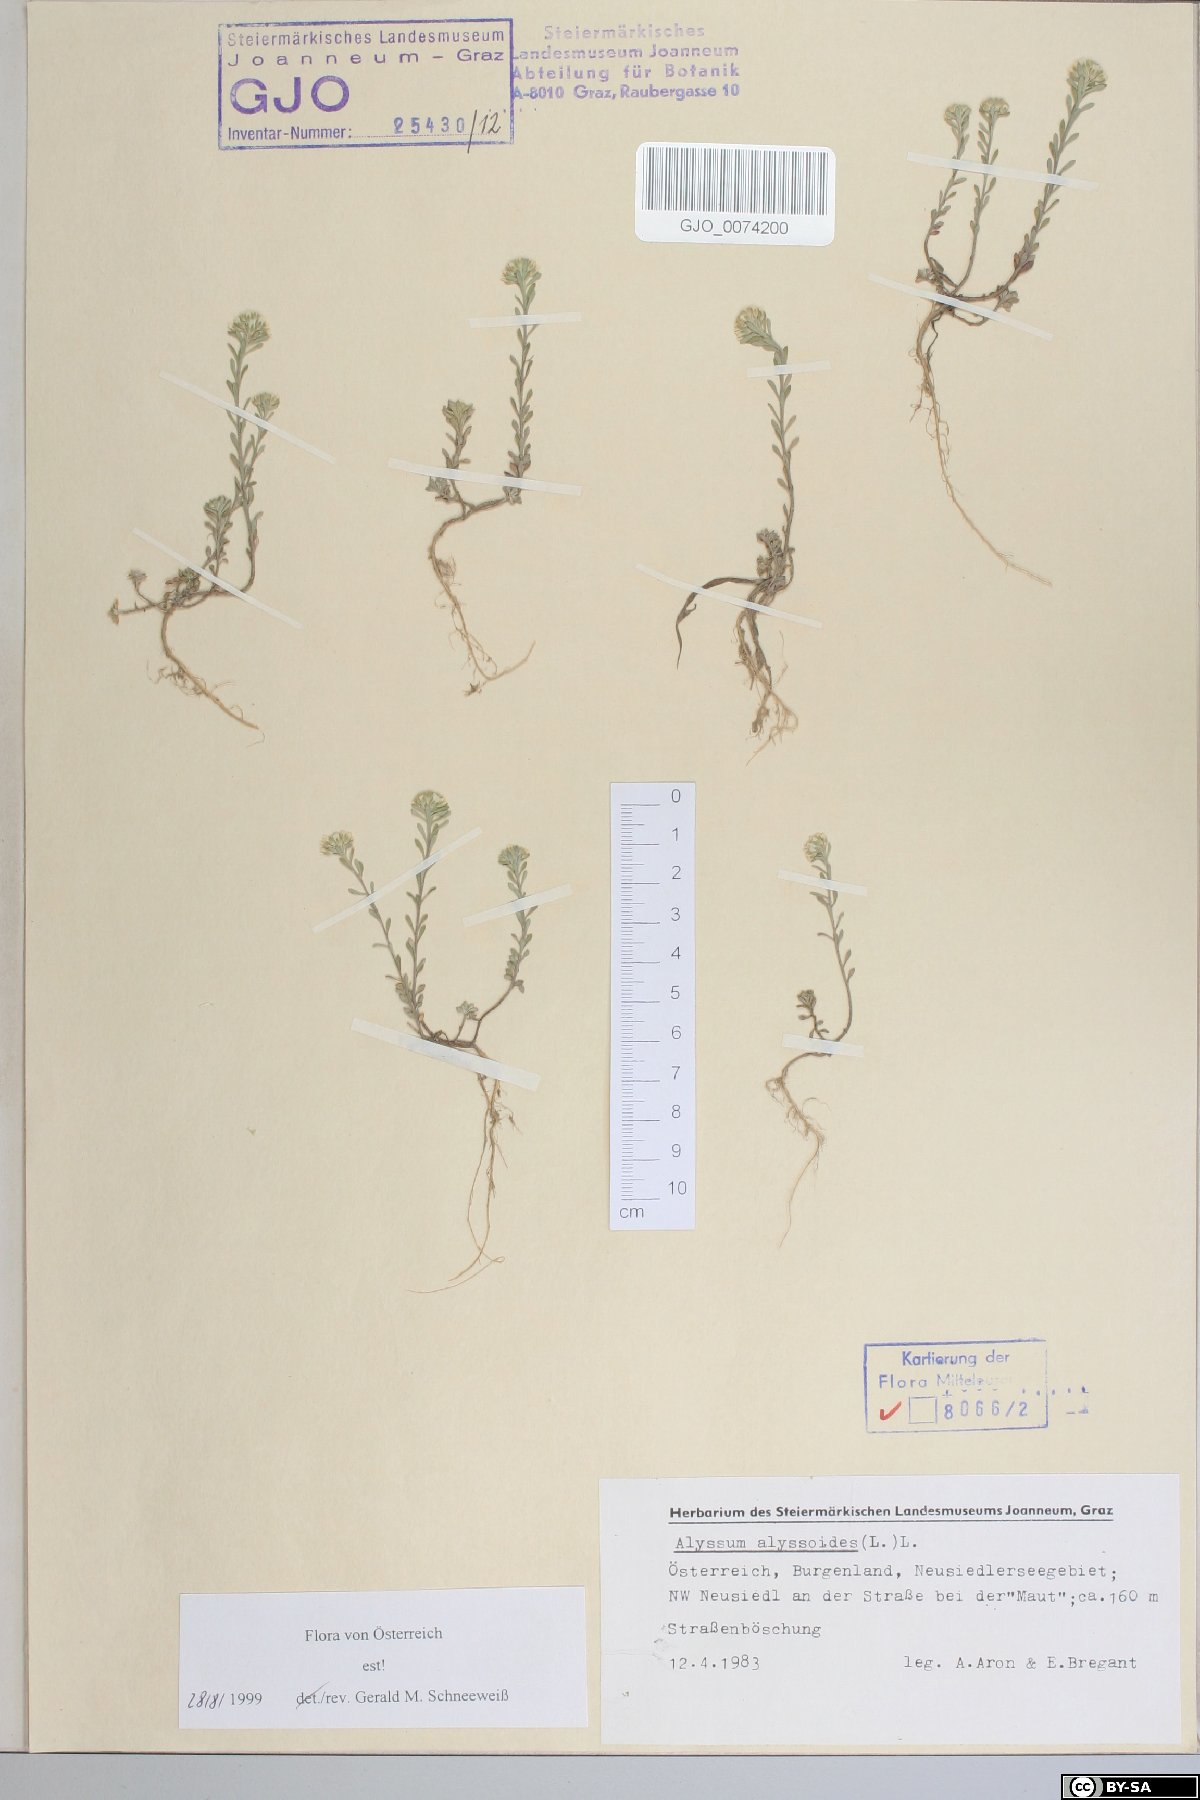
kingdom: Plantae
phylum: Tracheophyta
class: Magnoliopsida
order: Brassicales
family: Brassicaceae
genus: Alyssum
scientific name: Alyssum alyssoides
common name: Small alison
